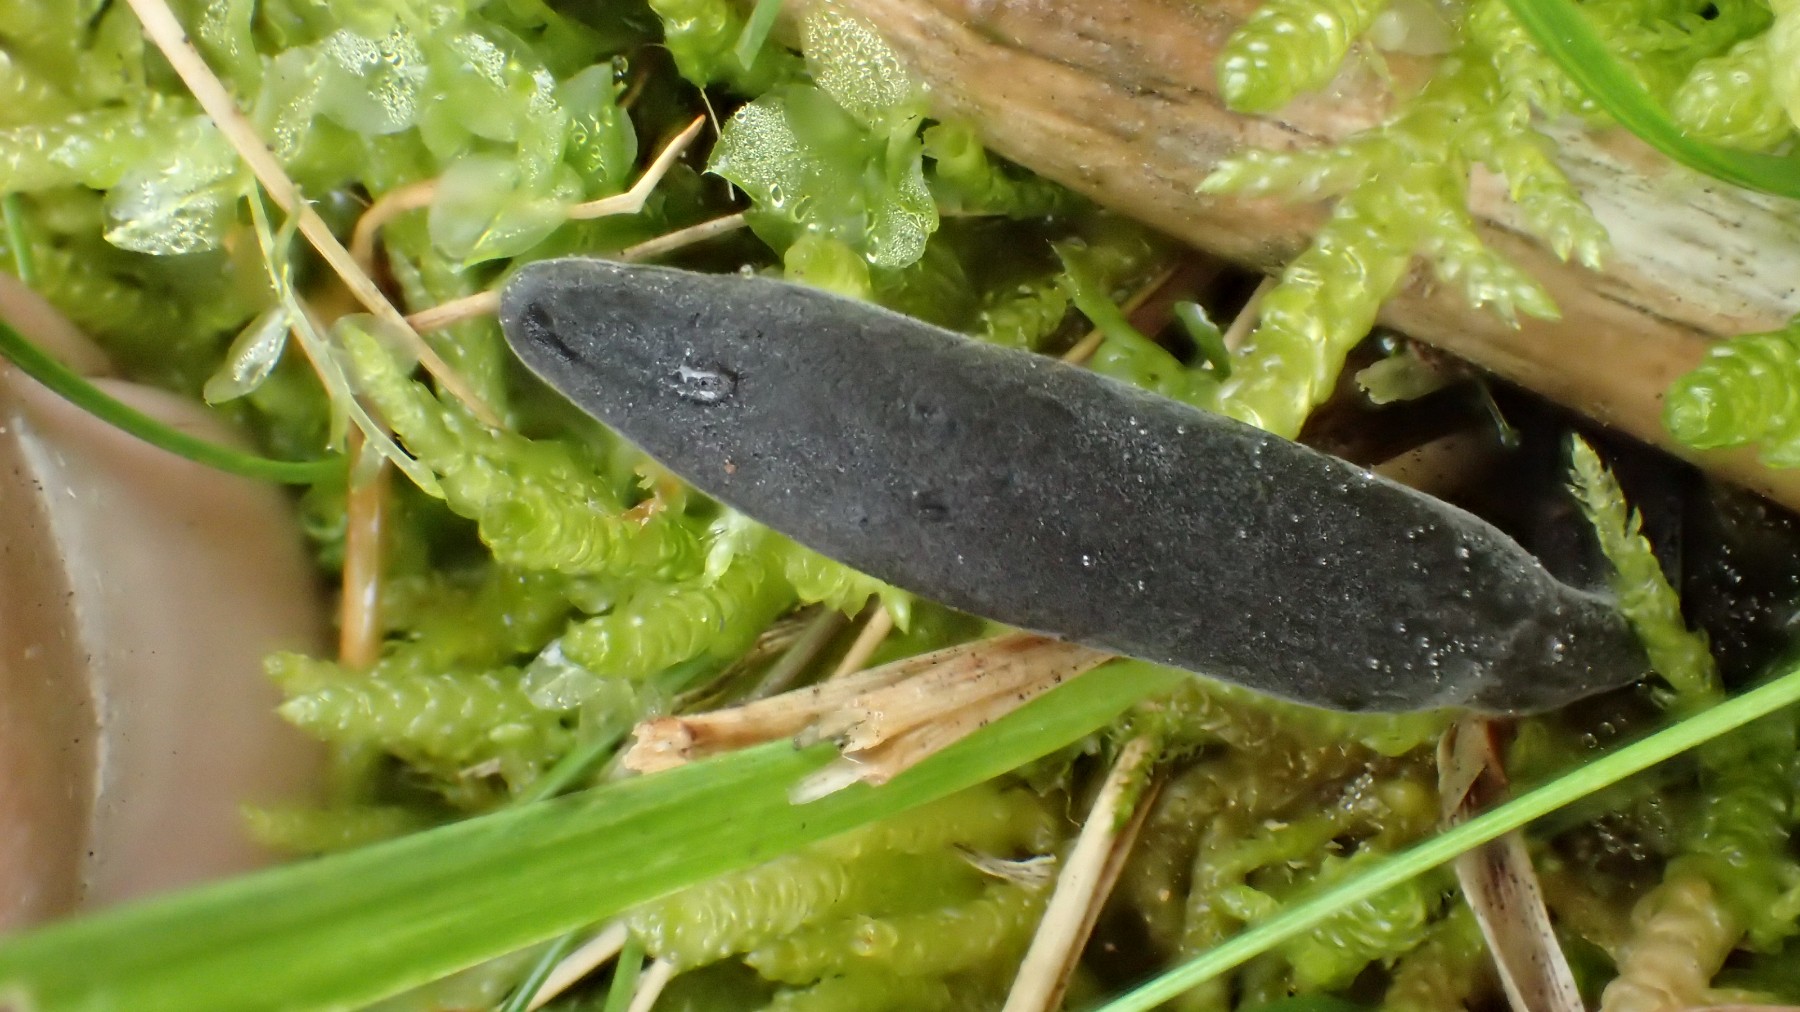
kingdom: Fungi
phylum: Ascomycota
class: Geoglossomycetes
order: Geoglossales
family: Geoglossaceae
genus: Geoglossum
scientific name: Geoglossum umbratile
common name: slank jordtunge
